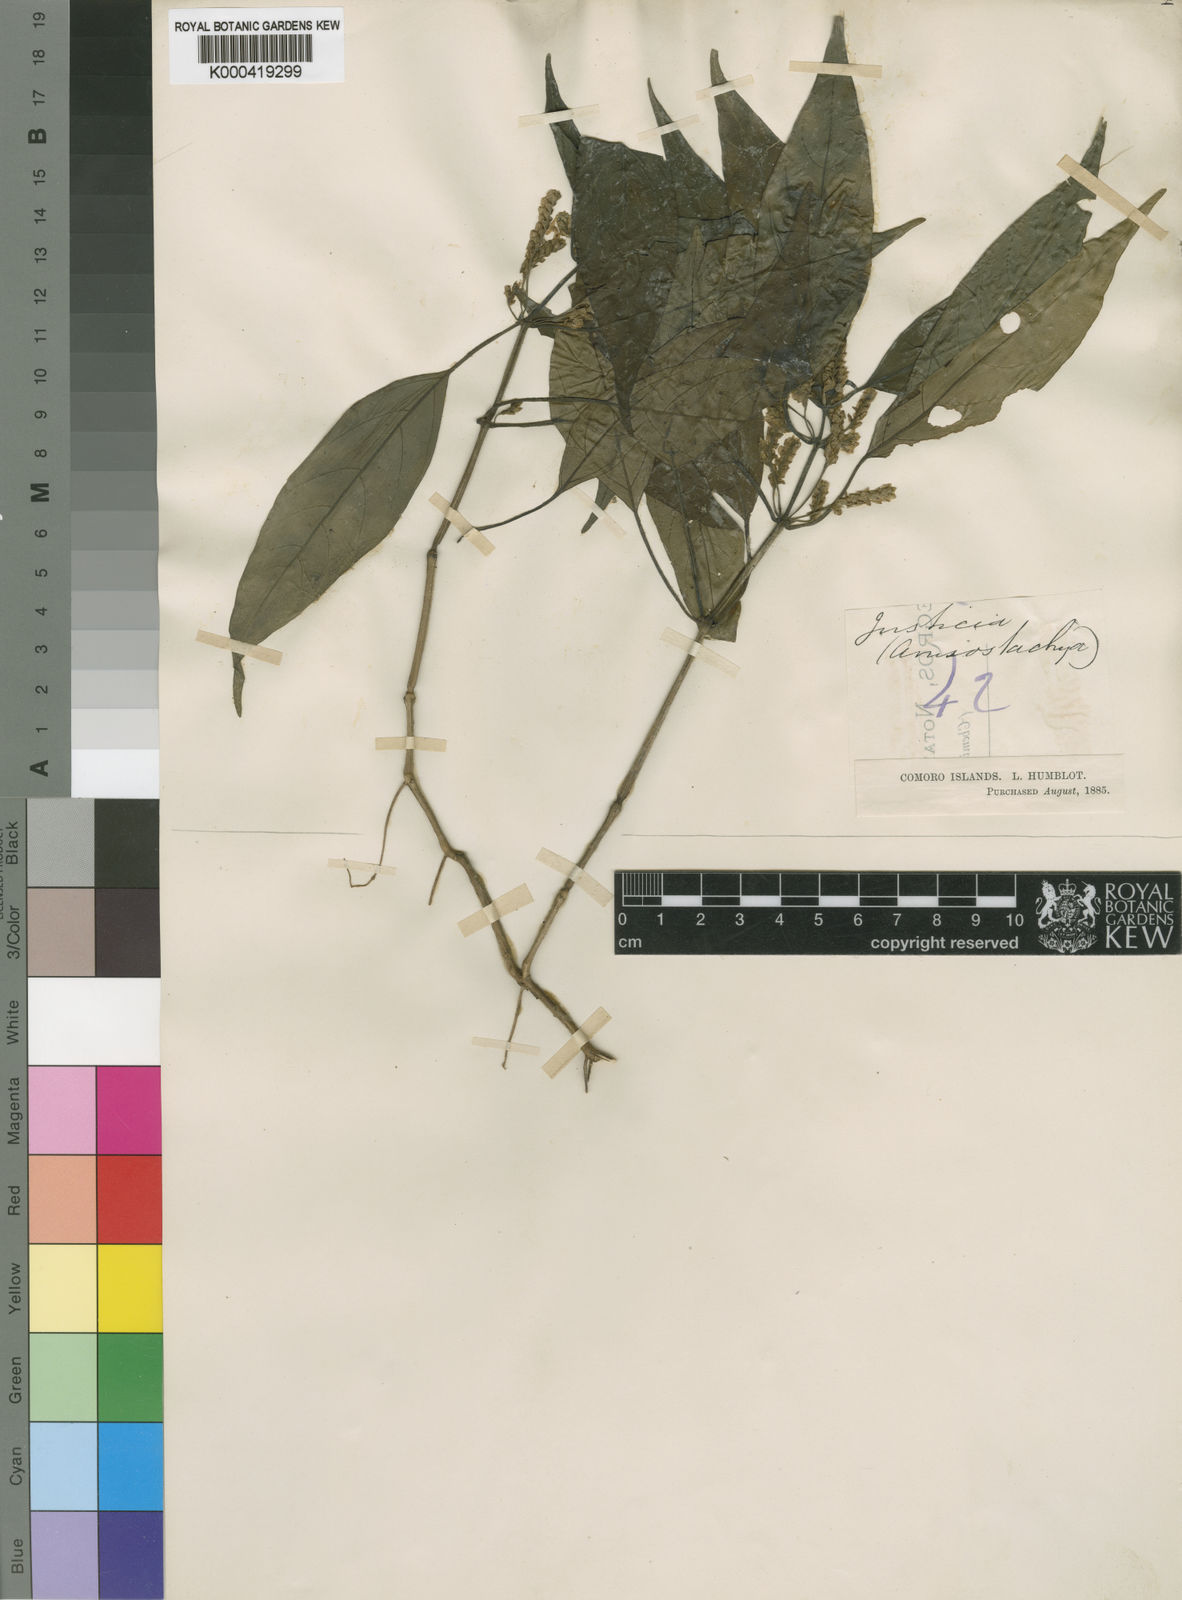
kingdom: Plantae
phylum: Tracheophyta
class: Magnoliopsida
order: Lamiales
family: Acanthaceae
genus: Justicia
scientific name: Justicia
